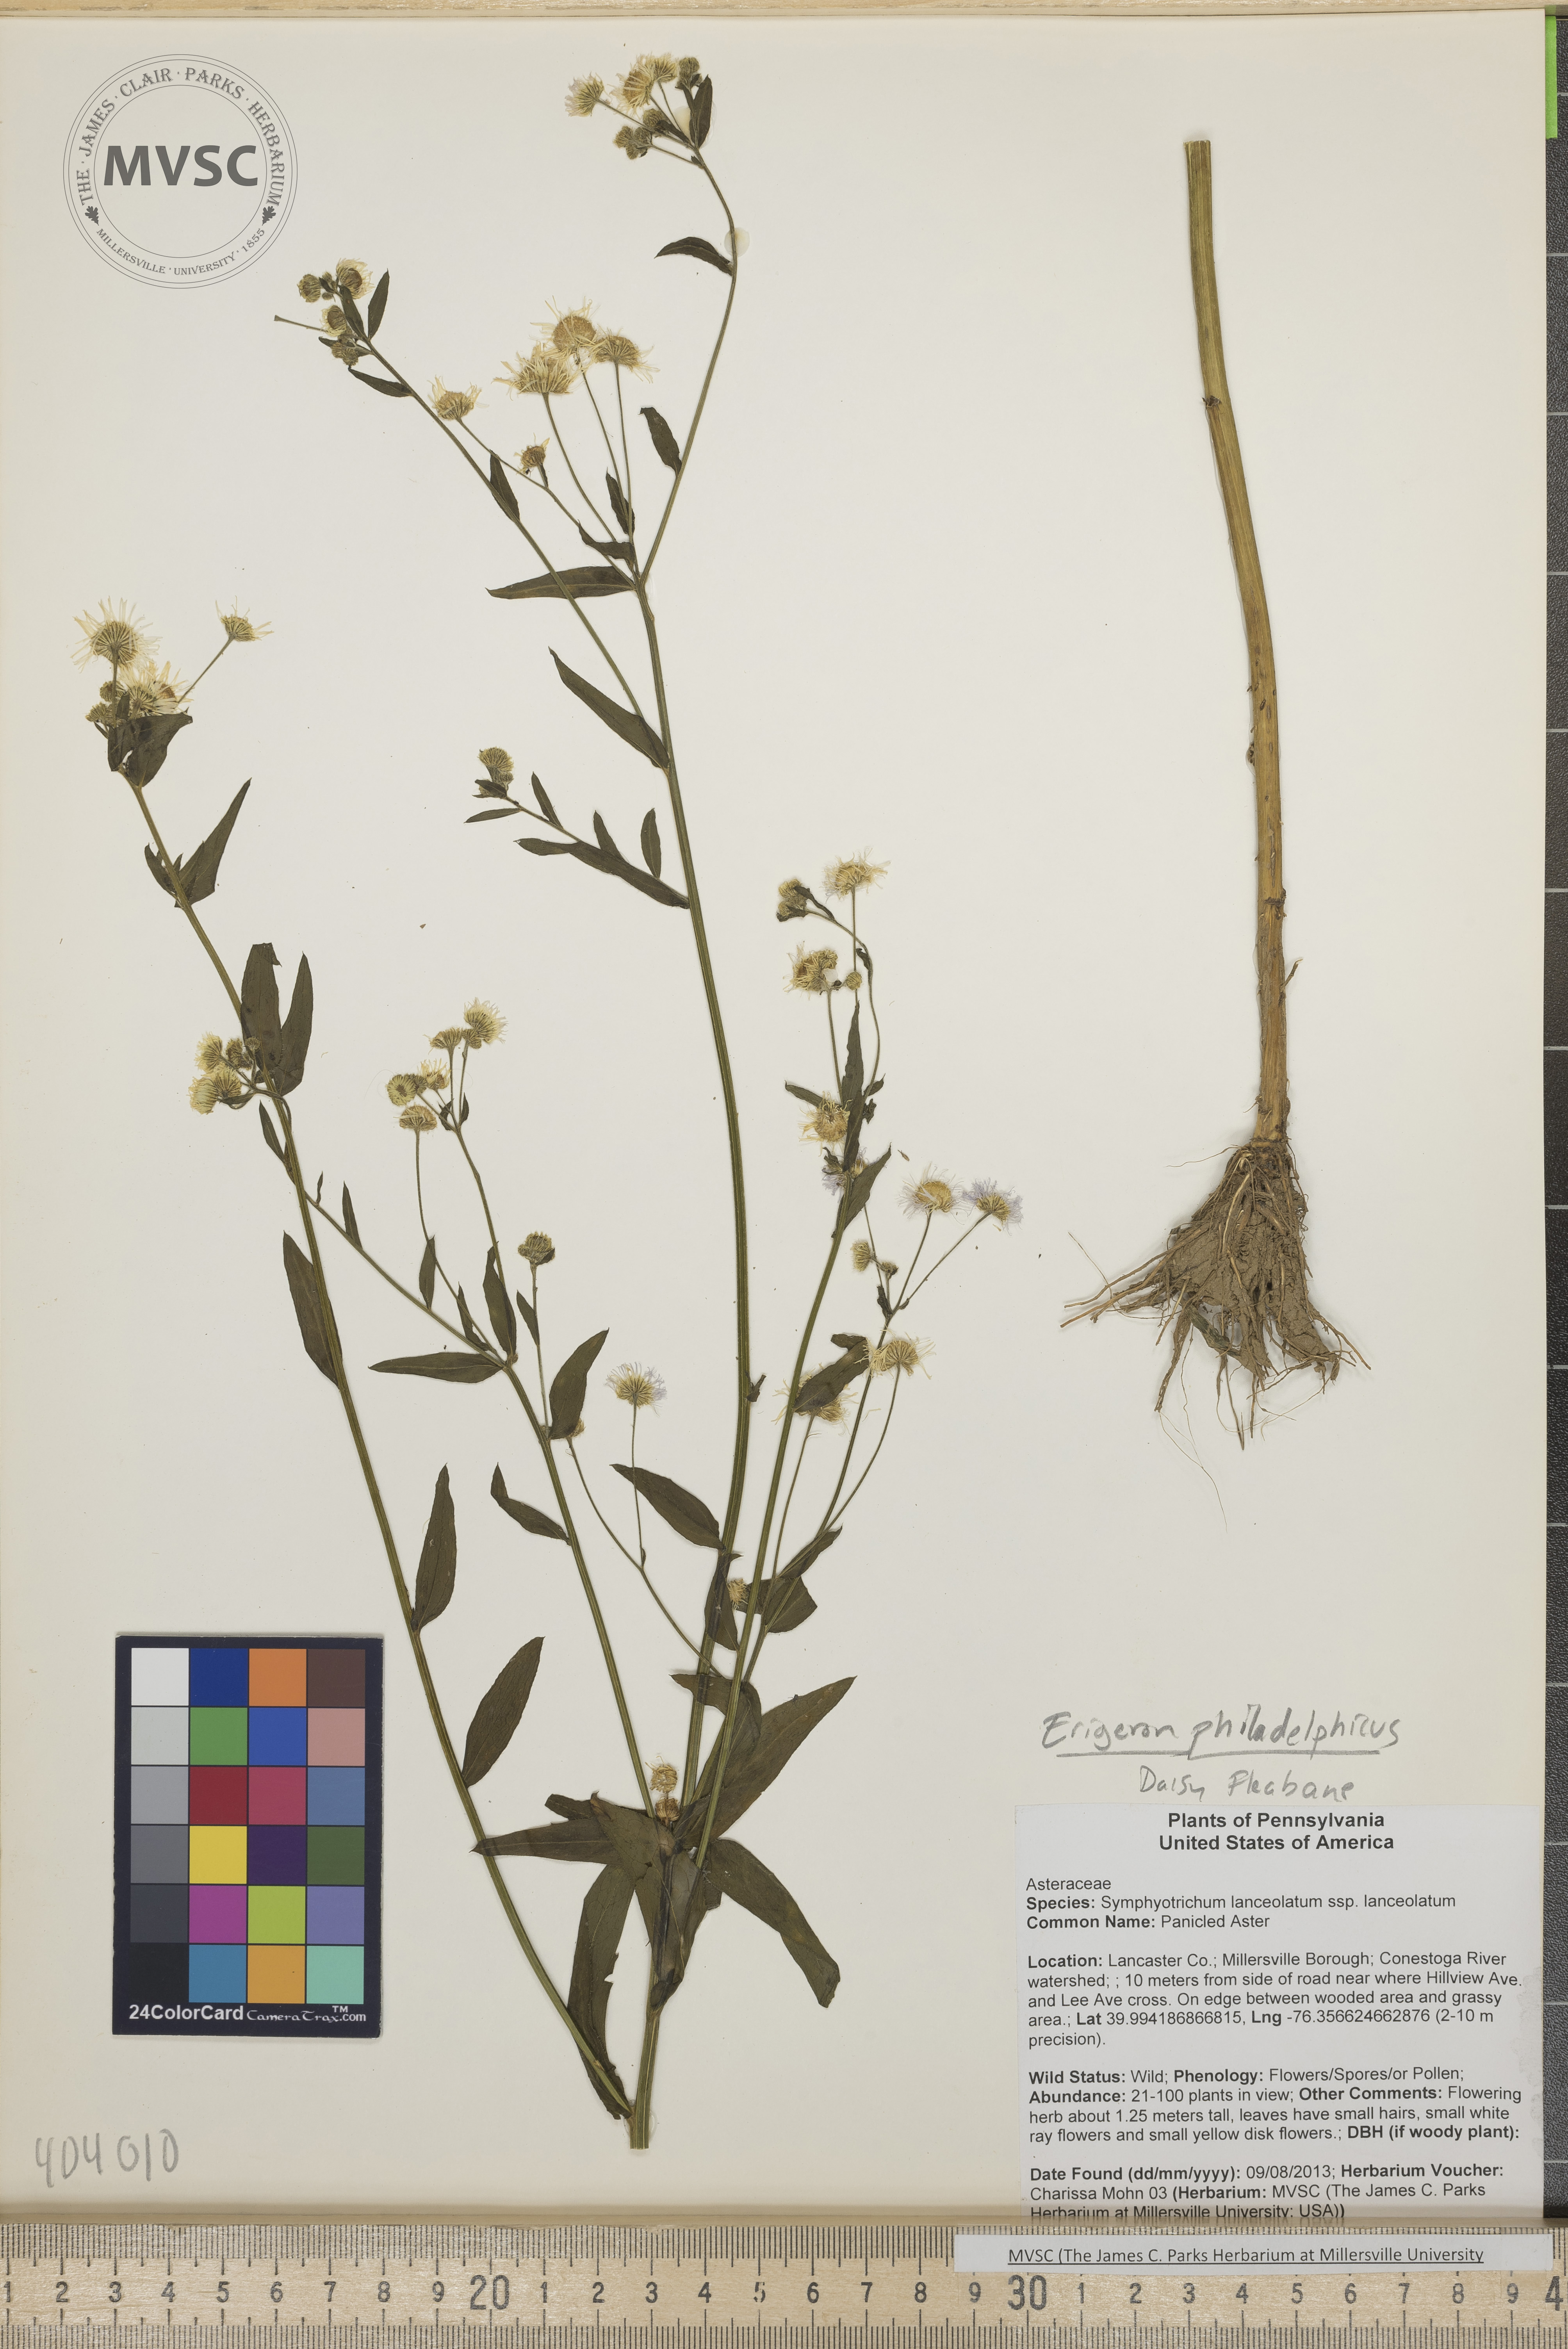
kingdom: Plantae
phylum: Tracheophyta
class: Magnoliopsida
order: Asterales
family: Asteraceae
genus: Erigeron
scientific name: Erigeron philadelphicus
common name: Daisy fleabane
